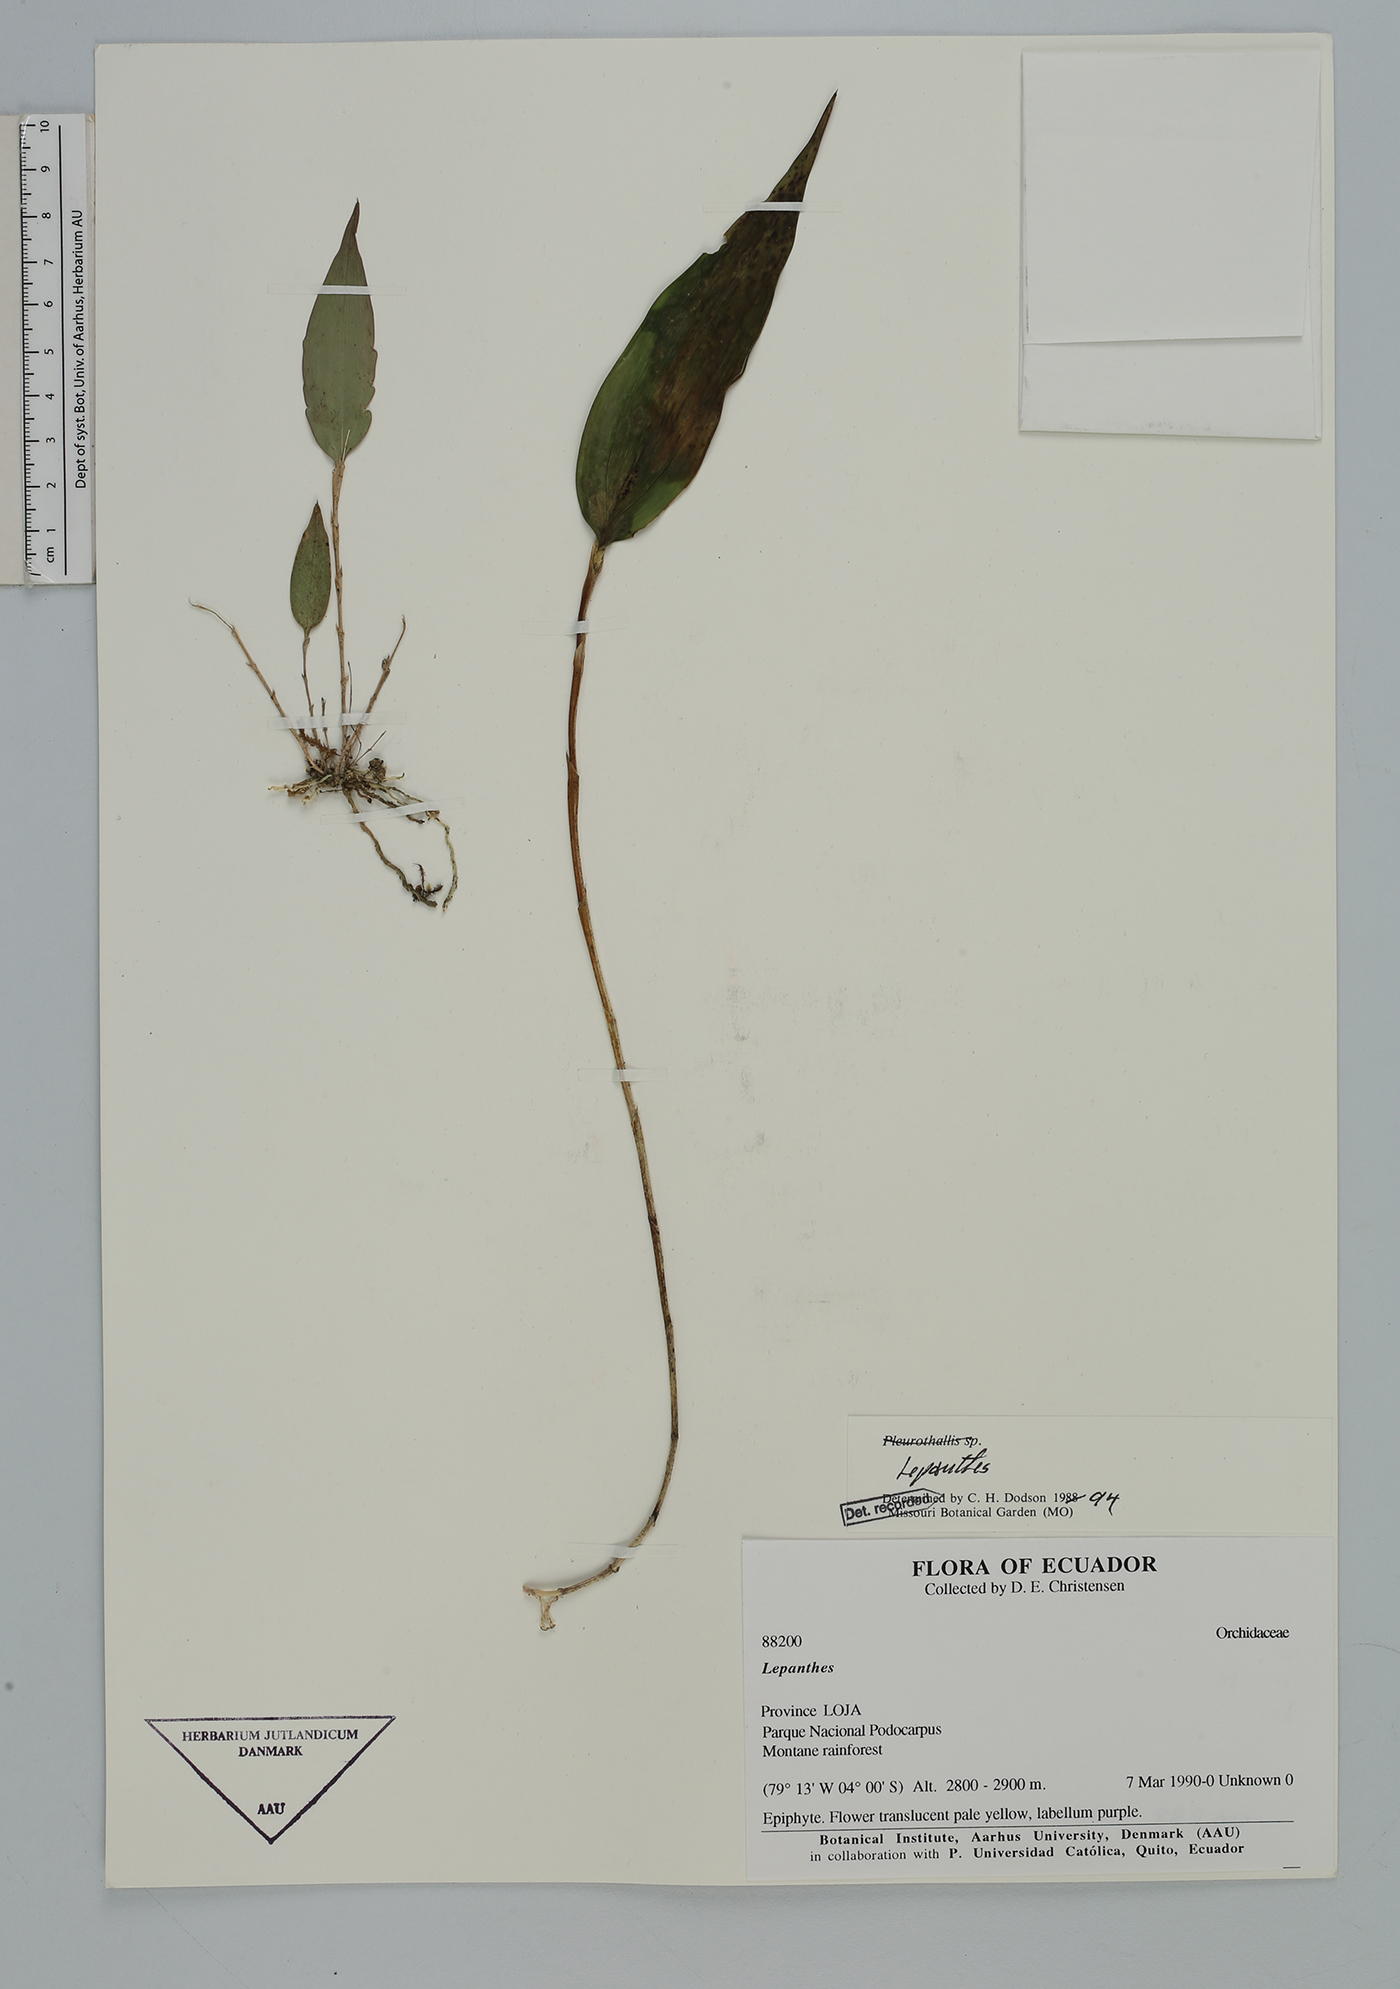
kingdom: Plantae
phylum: Tracheophyta
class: Liliopsida
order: Asparagales
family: Orchidaceae
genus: Lepanthes
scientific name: Lepanthes
